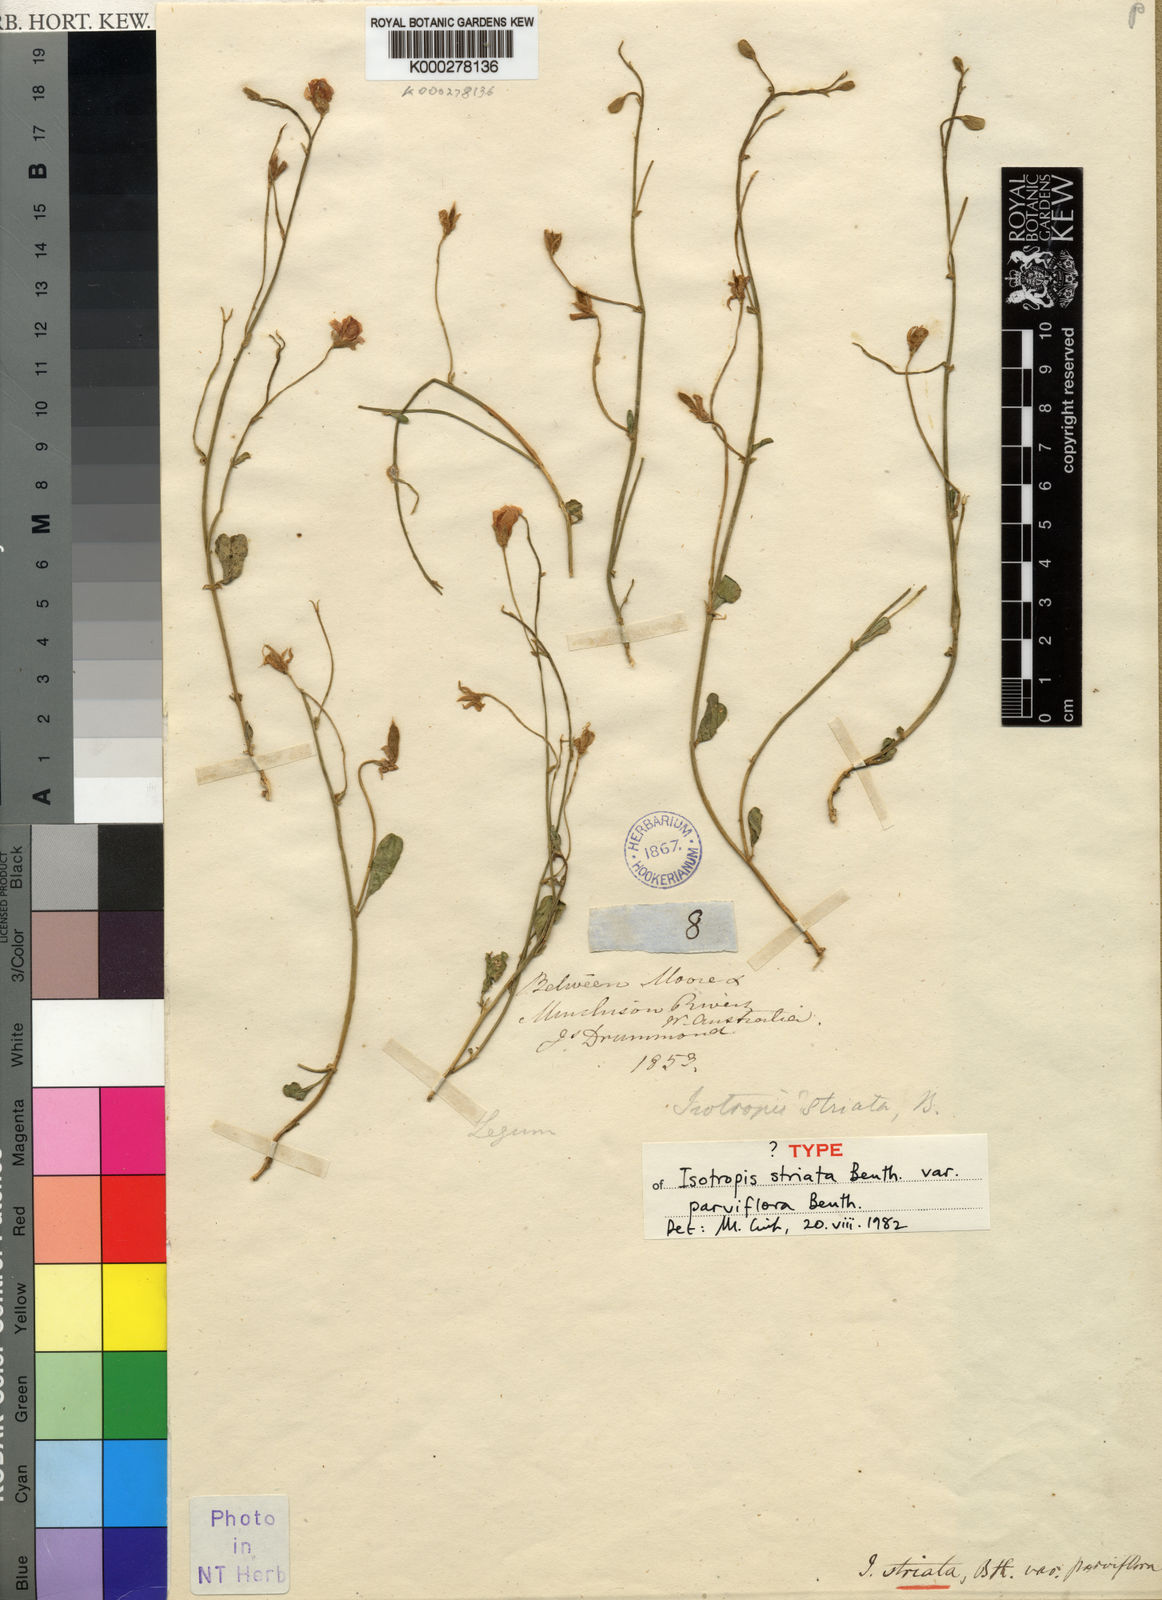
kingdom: Plantae
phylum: Tracheophyta
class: Magnoliopsida
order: Fabales
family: Fabaceae
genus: Isotropis
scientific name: Isotropis cuneifolia
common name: Granny bonnets
